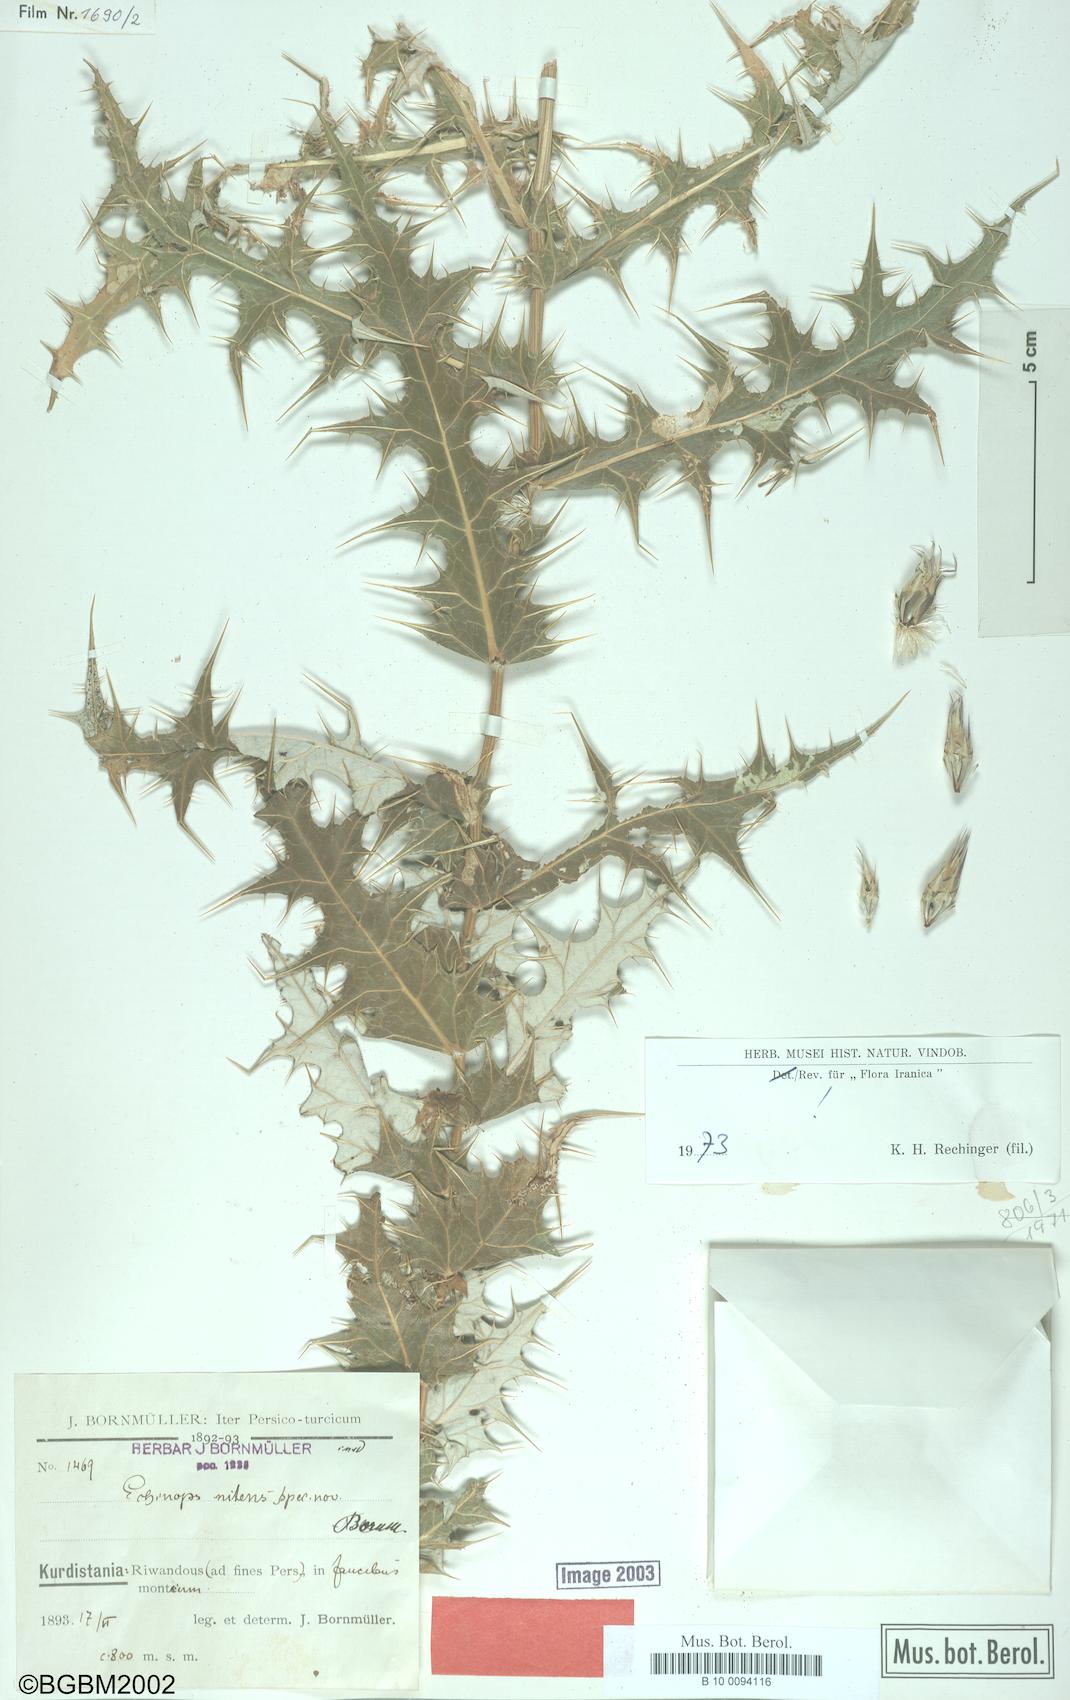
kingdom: Plantae
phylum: Tracheophyta
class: Magnoliopsida
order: Asterales
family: Asteraceae
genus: Echinops
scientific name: Echinops nitens
